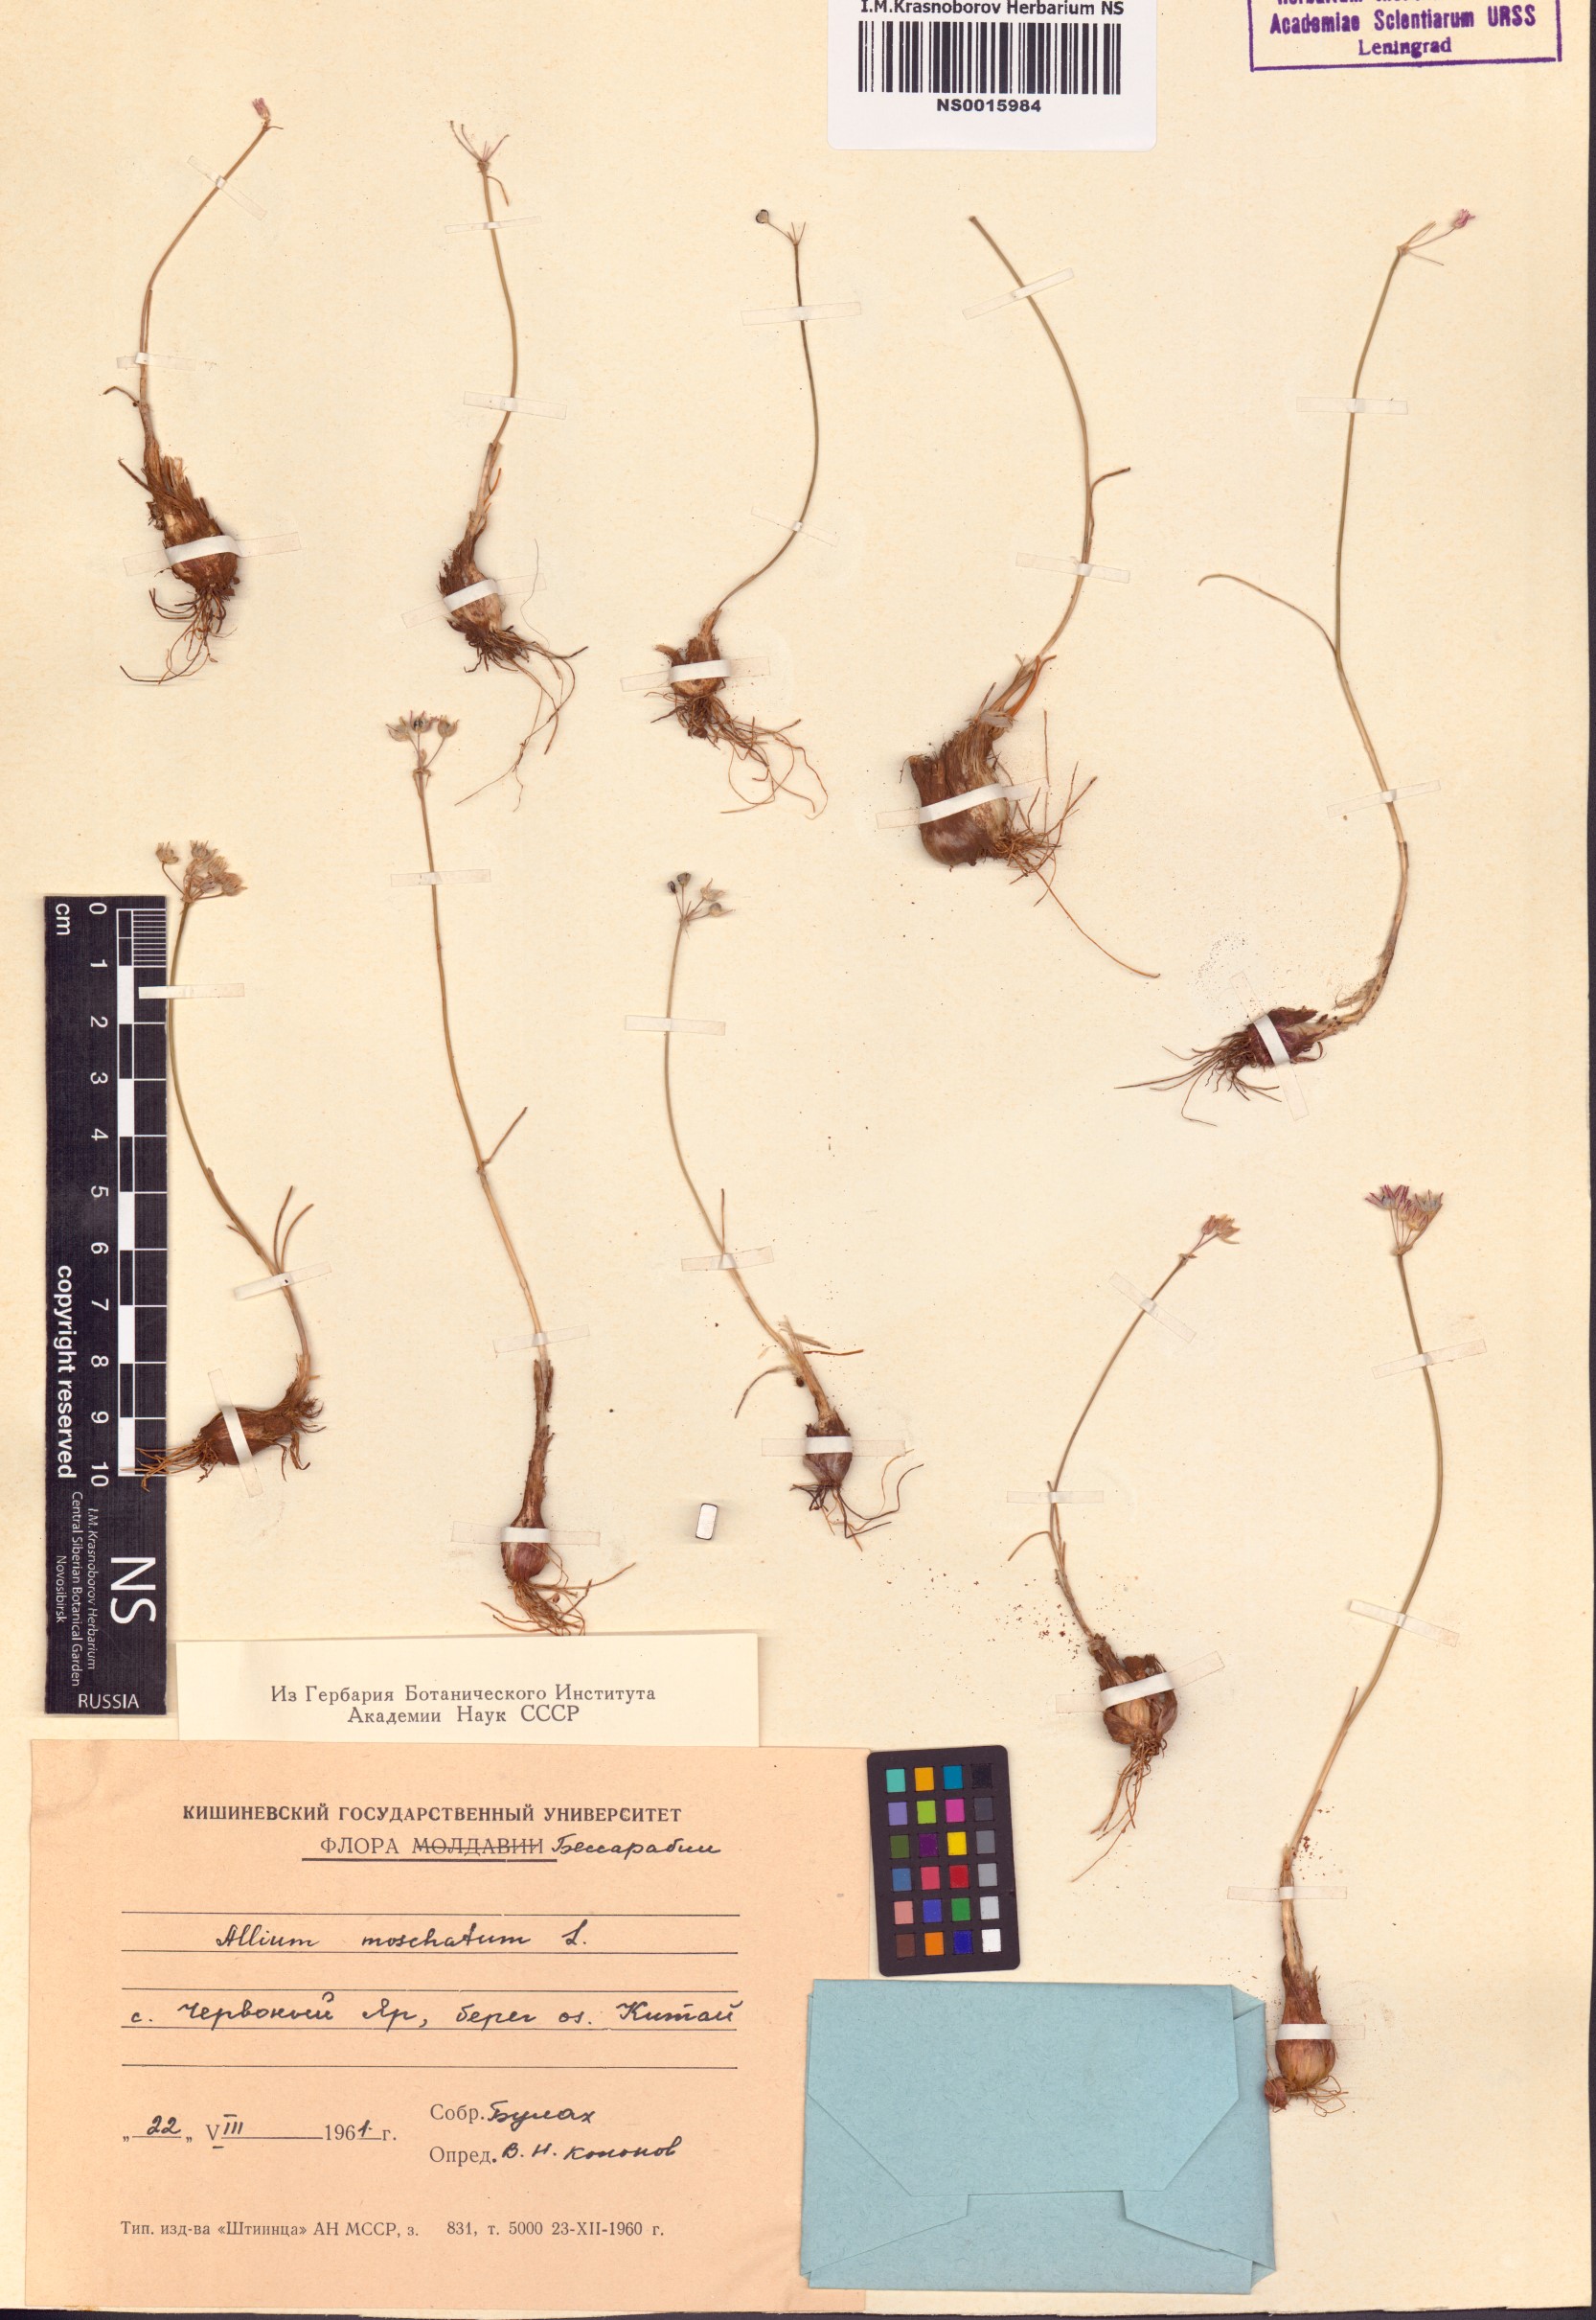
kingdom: Plantae
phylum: Tracheophyta
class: Liliopsida
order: Asparagales
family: Amaryllidaceae
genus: Allium
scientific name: Allium moschatum
